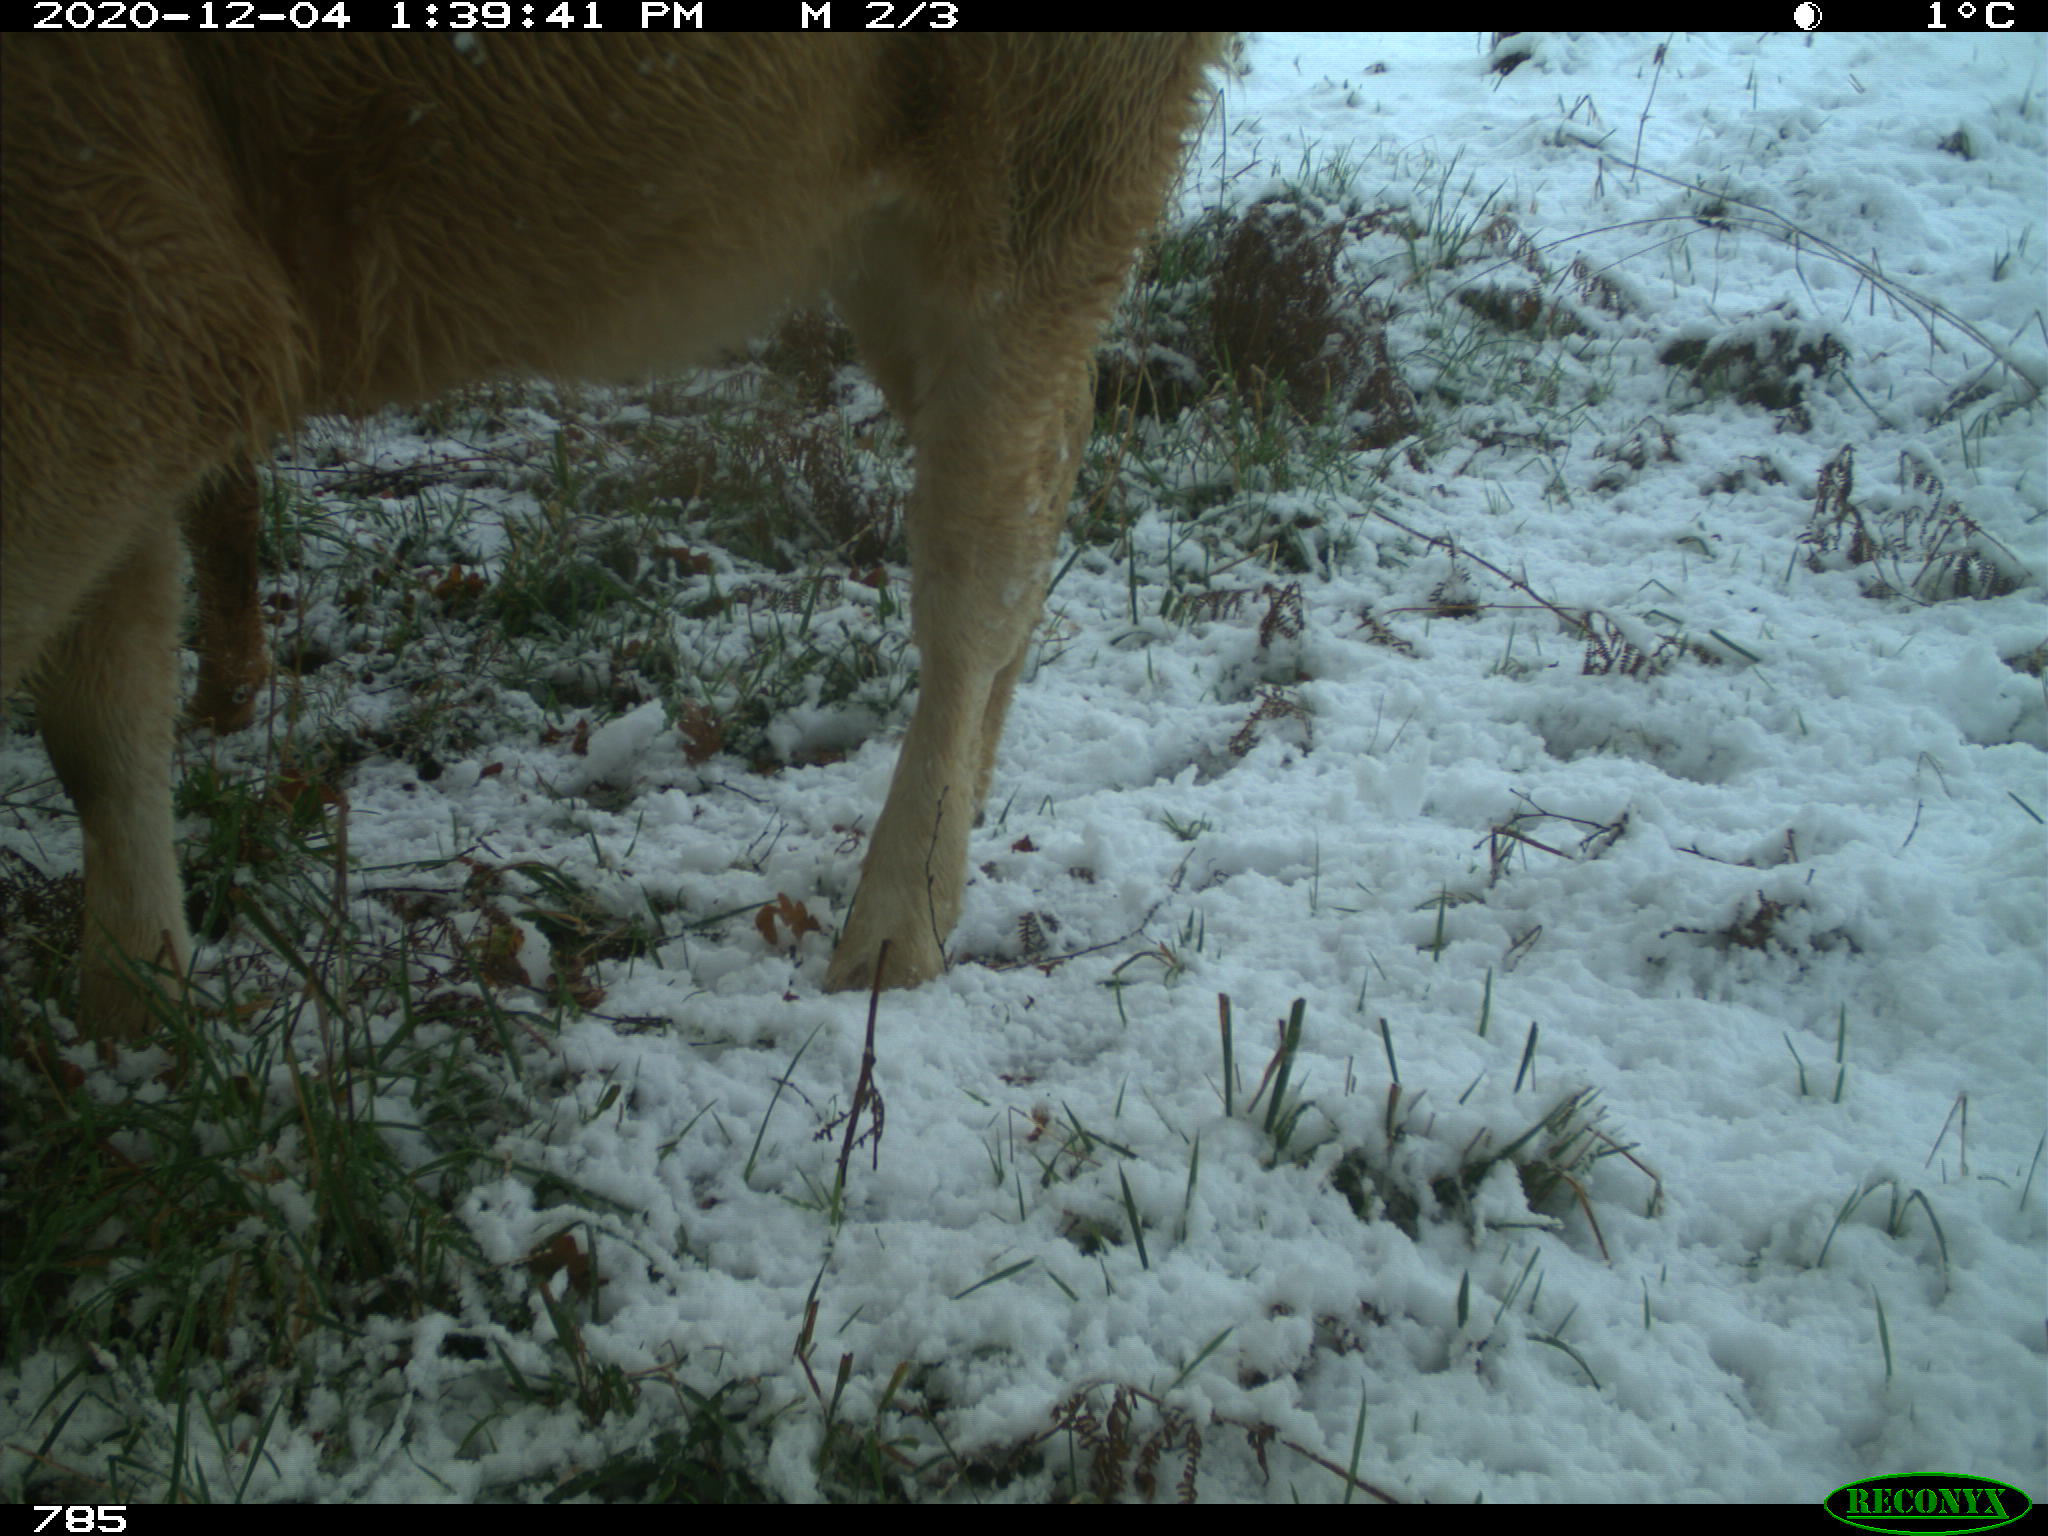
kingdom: Animalia
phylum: Chordata
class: Mammalia
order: Artiodactyla
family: Bovidae
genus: Bos
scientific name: Bos taurus
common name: Domesticated cattle
